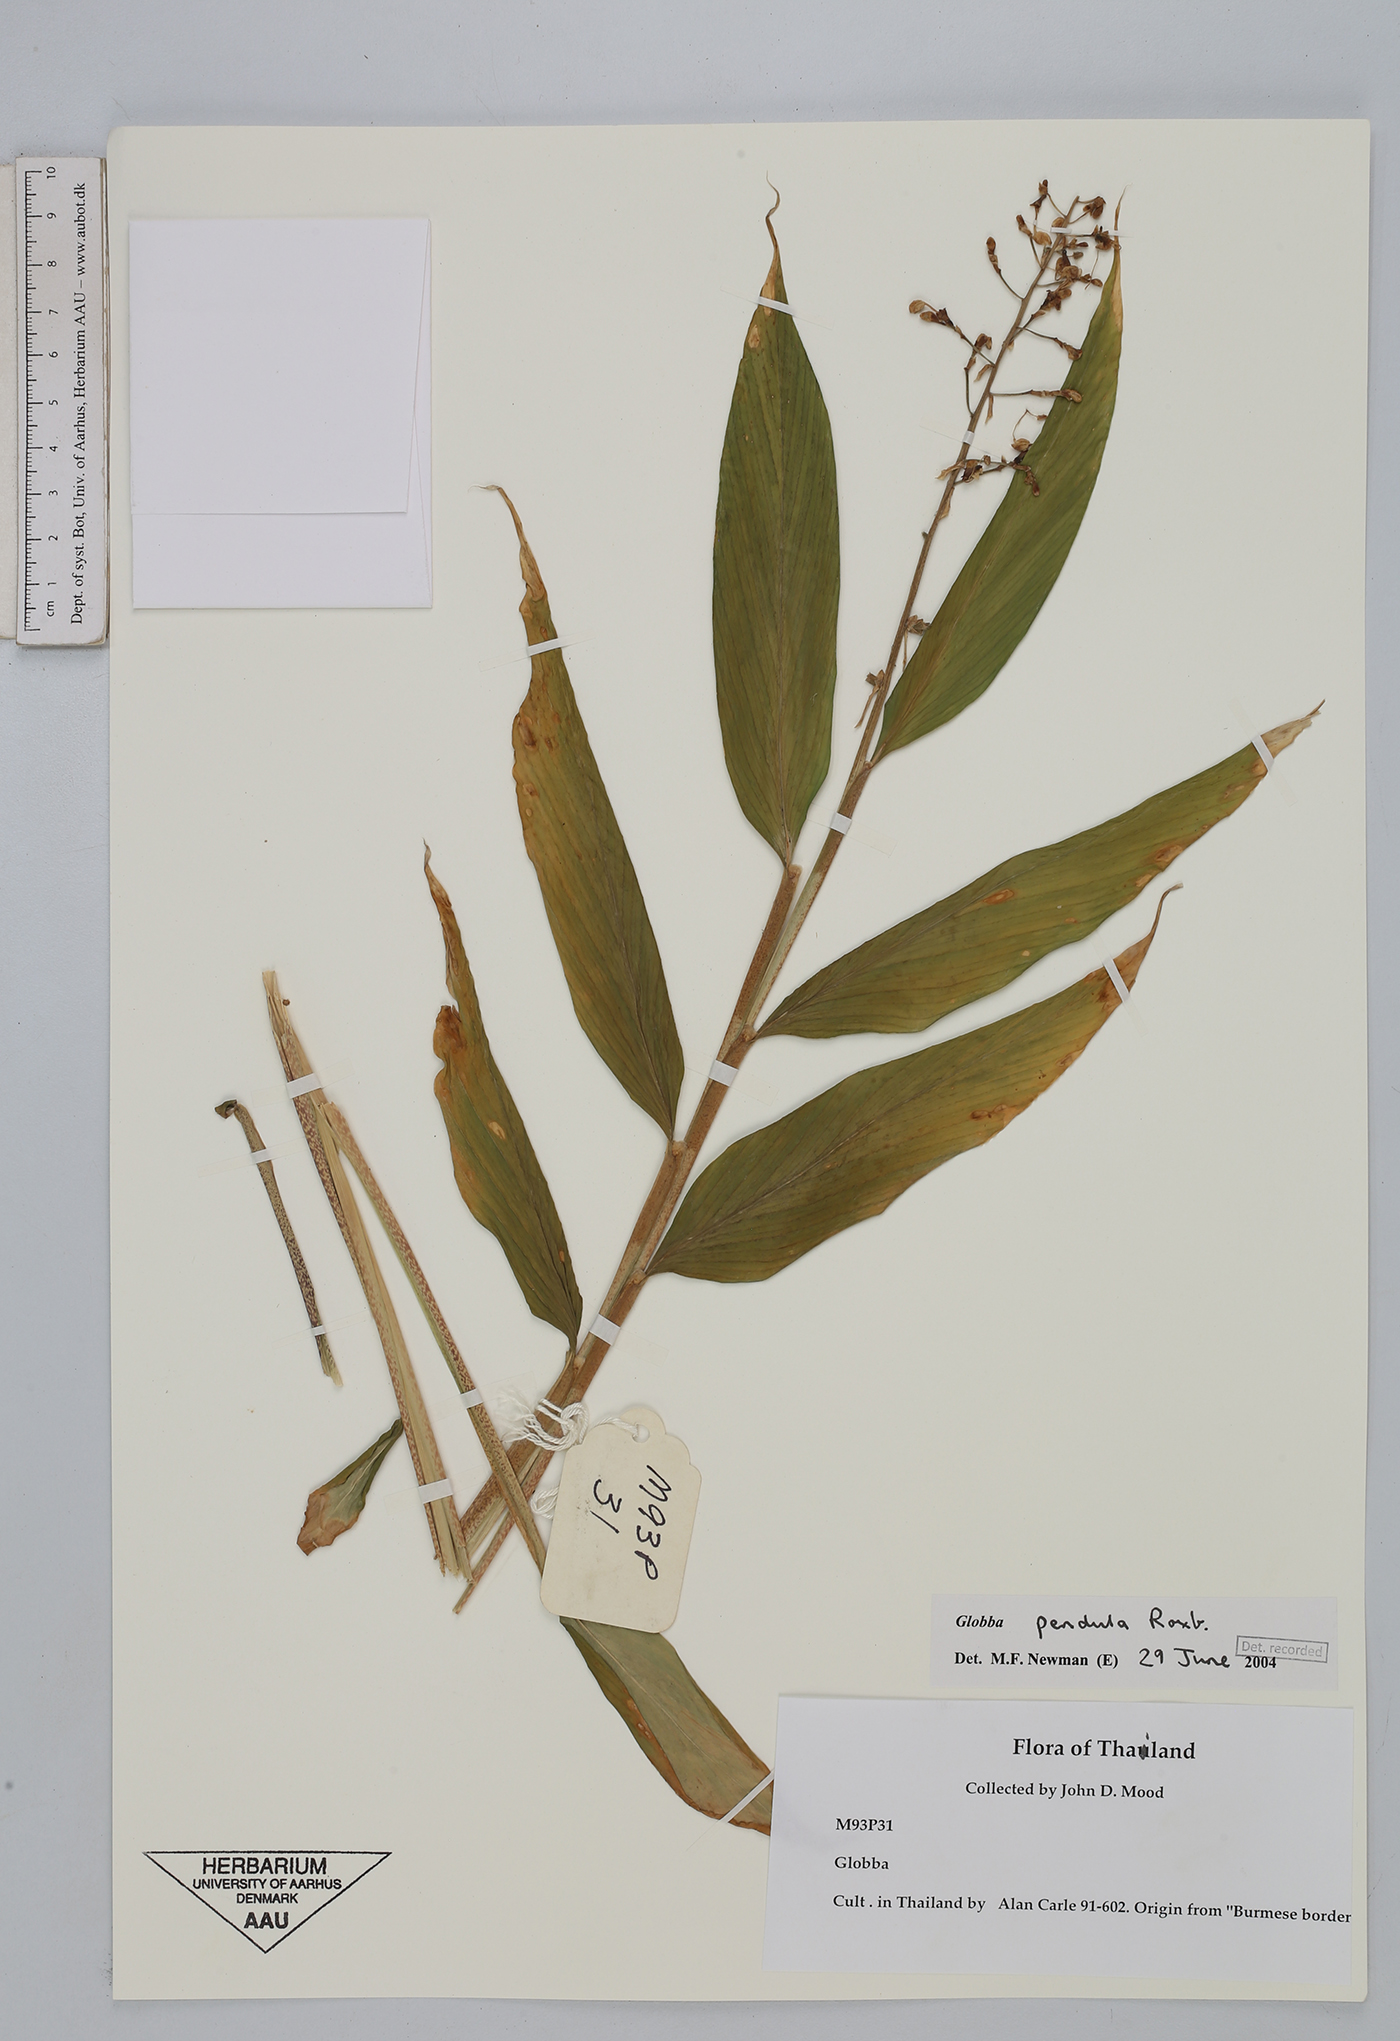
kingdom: Plantae
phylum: Tracheophyta
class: Liliopsida
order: Zingiberales
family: Zingiberaceae
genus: Globba
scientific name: Globba pendula
